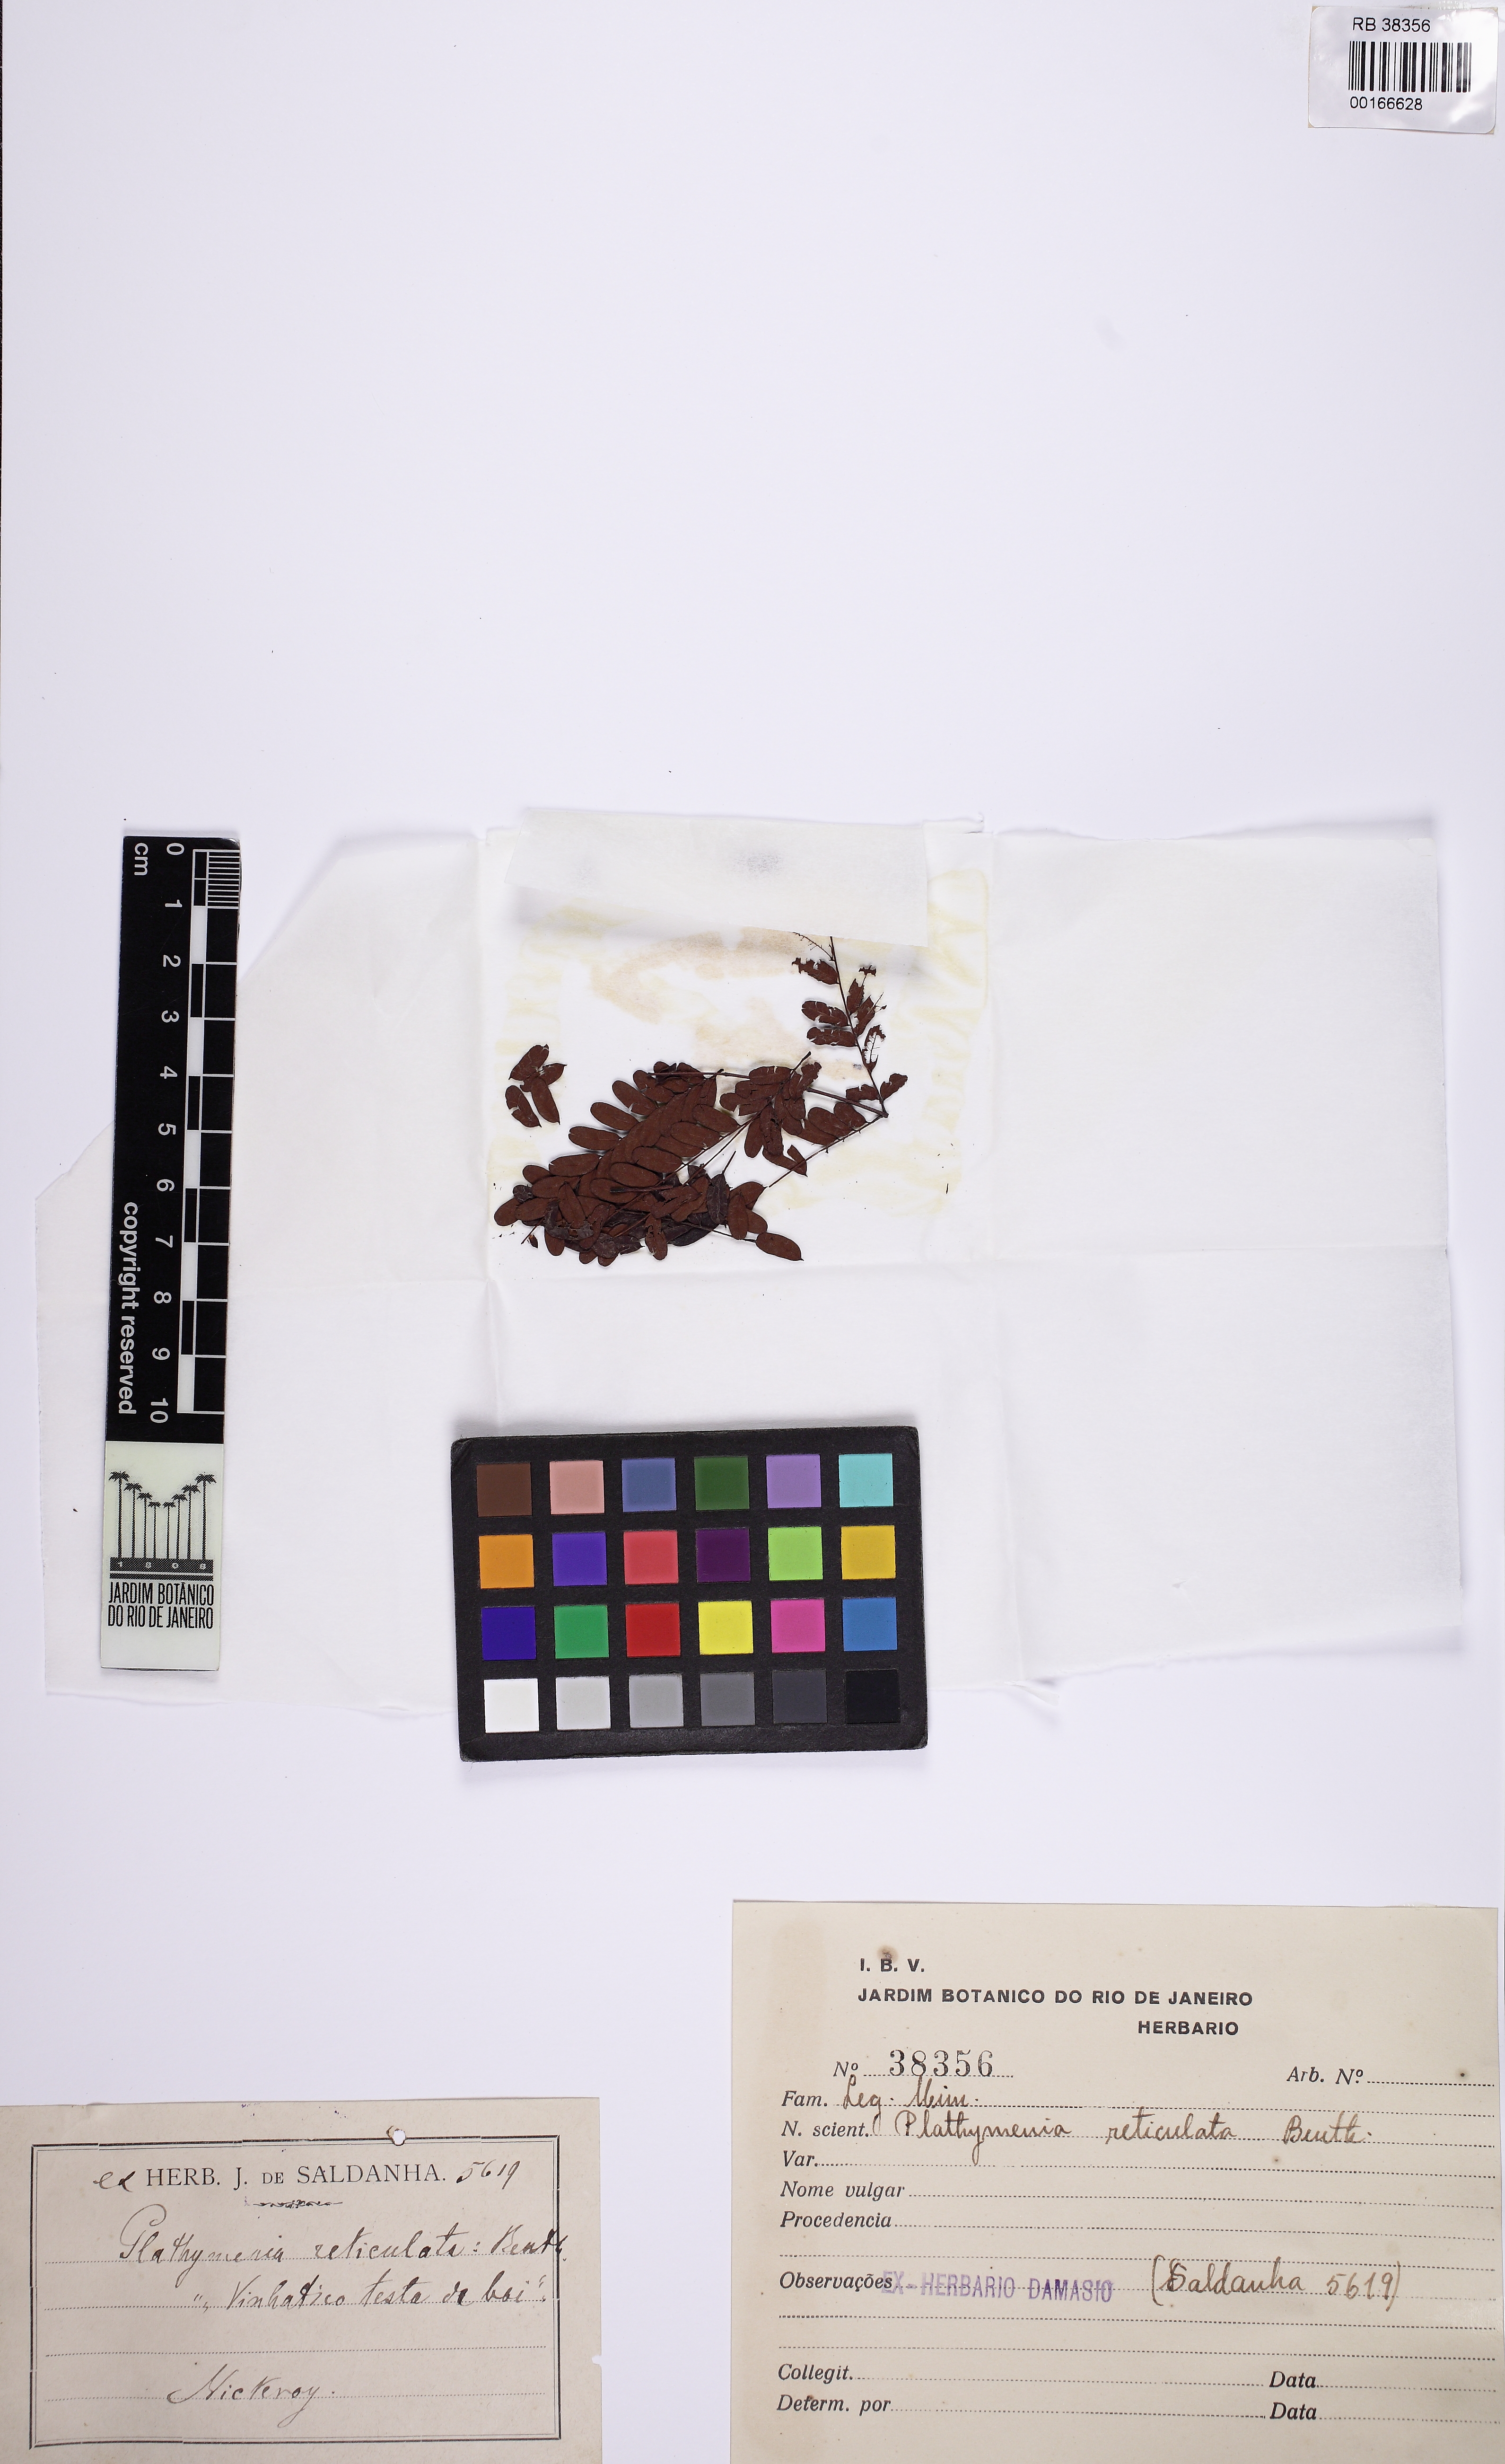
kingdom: Plantae
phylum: Tracheophyta
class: Magnoliopsida
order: Fabales
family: Fabaceae
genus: Plathymenia
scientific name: Plathymenia reticulata
